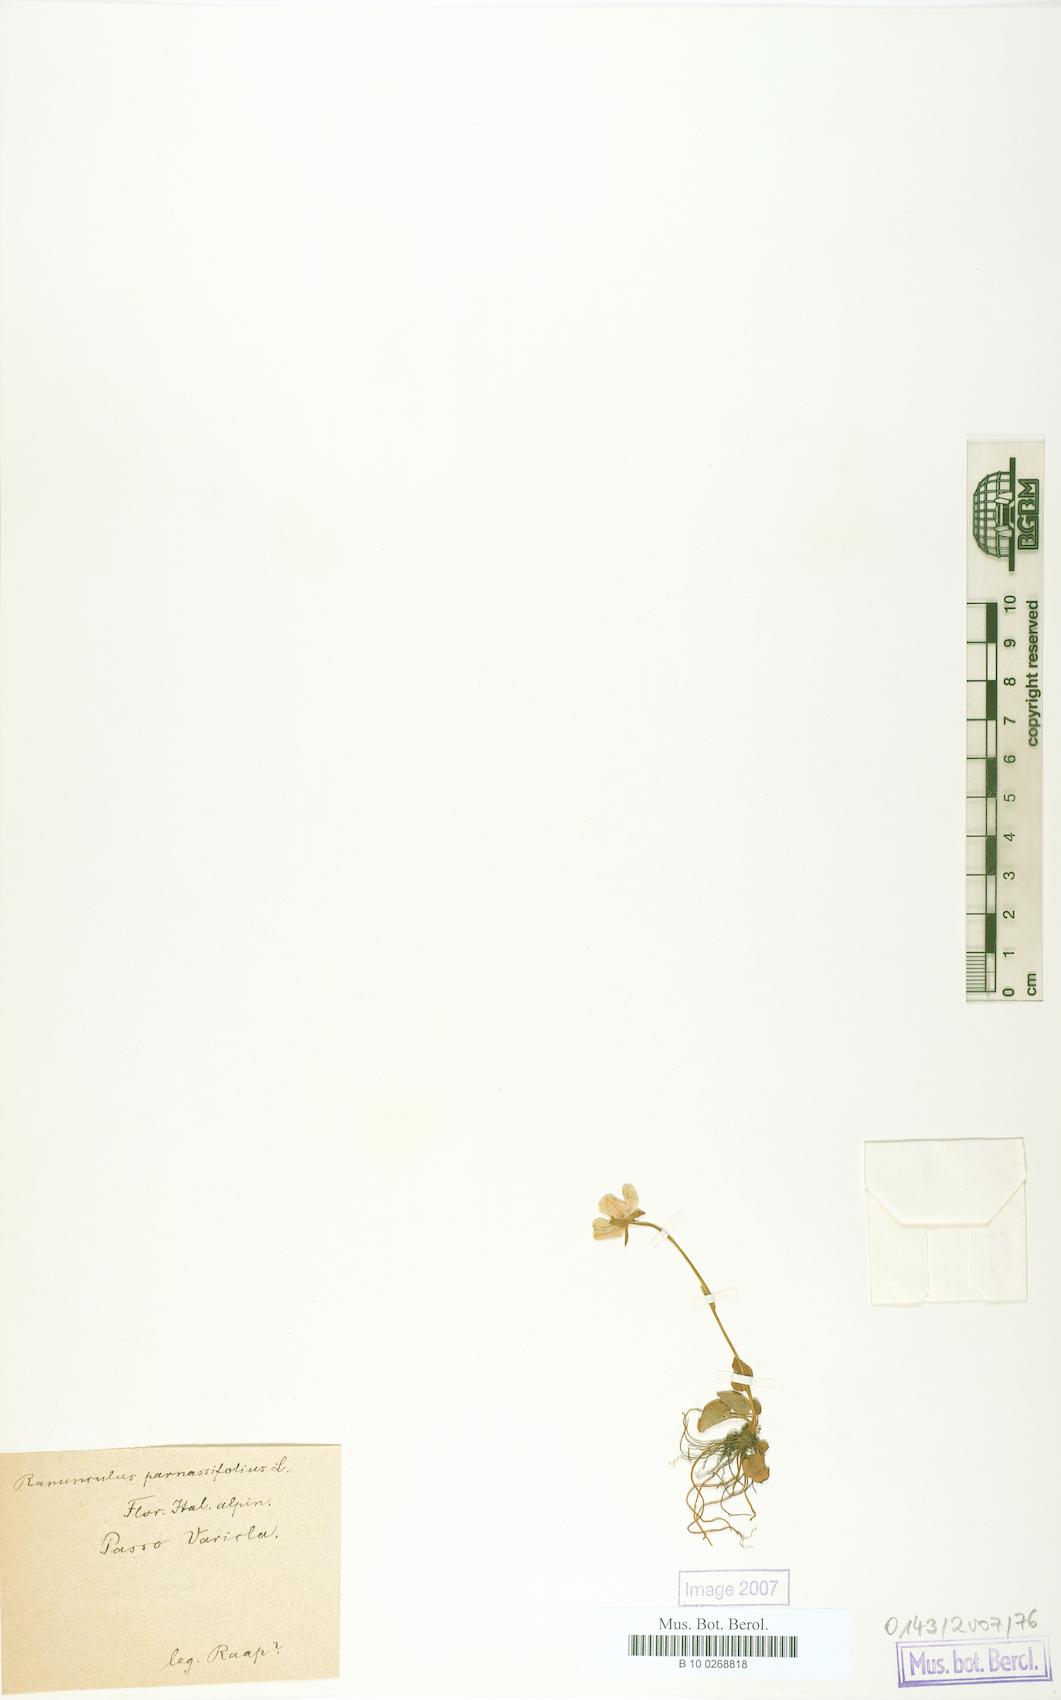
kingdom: Plantae
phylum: Tracheophyta
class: Magnoliopsida
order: Ranunculales
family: Ranunculaceae
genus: Ranunculus
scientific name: Ranunculus parnassiifolius
